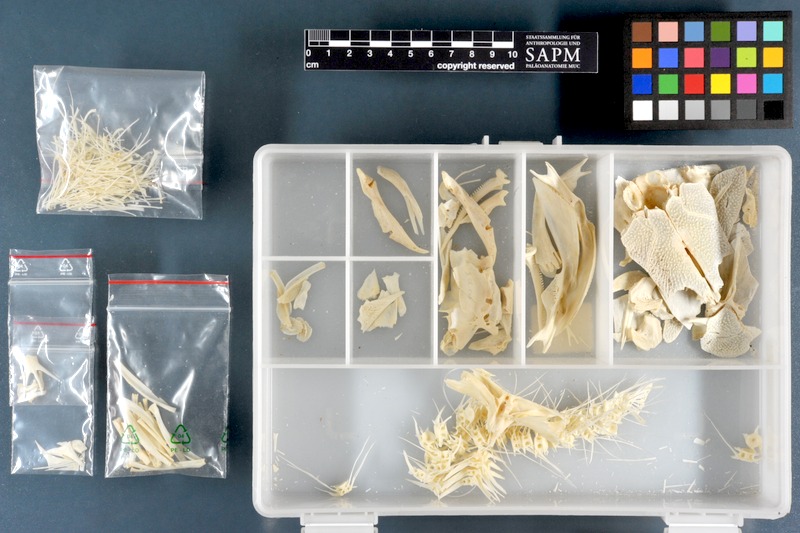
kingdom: Animalia
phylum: Chordata
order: Siluriformes
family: Clariidae
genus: Clarias
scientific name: Clarias gariepinus
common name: African catfish
